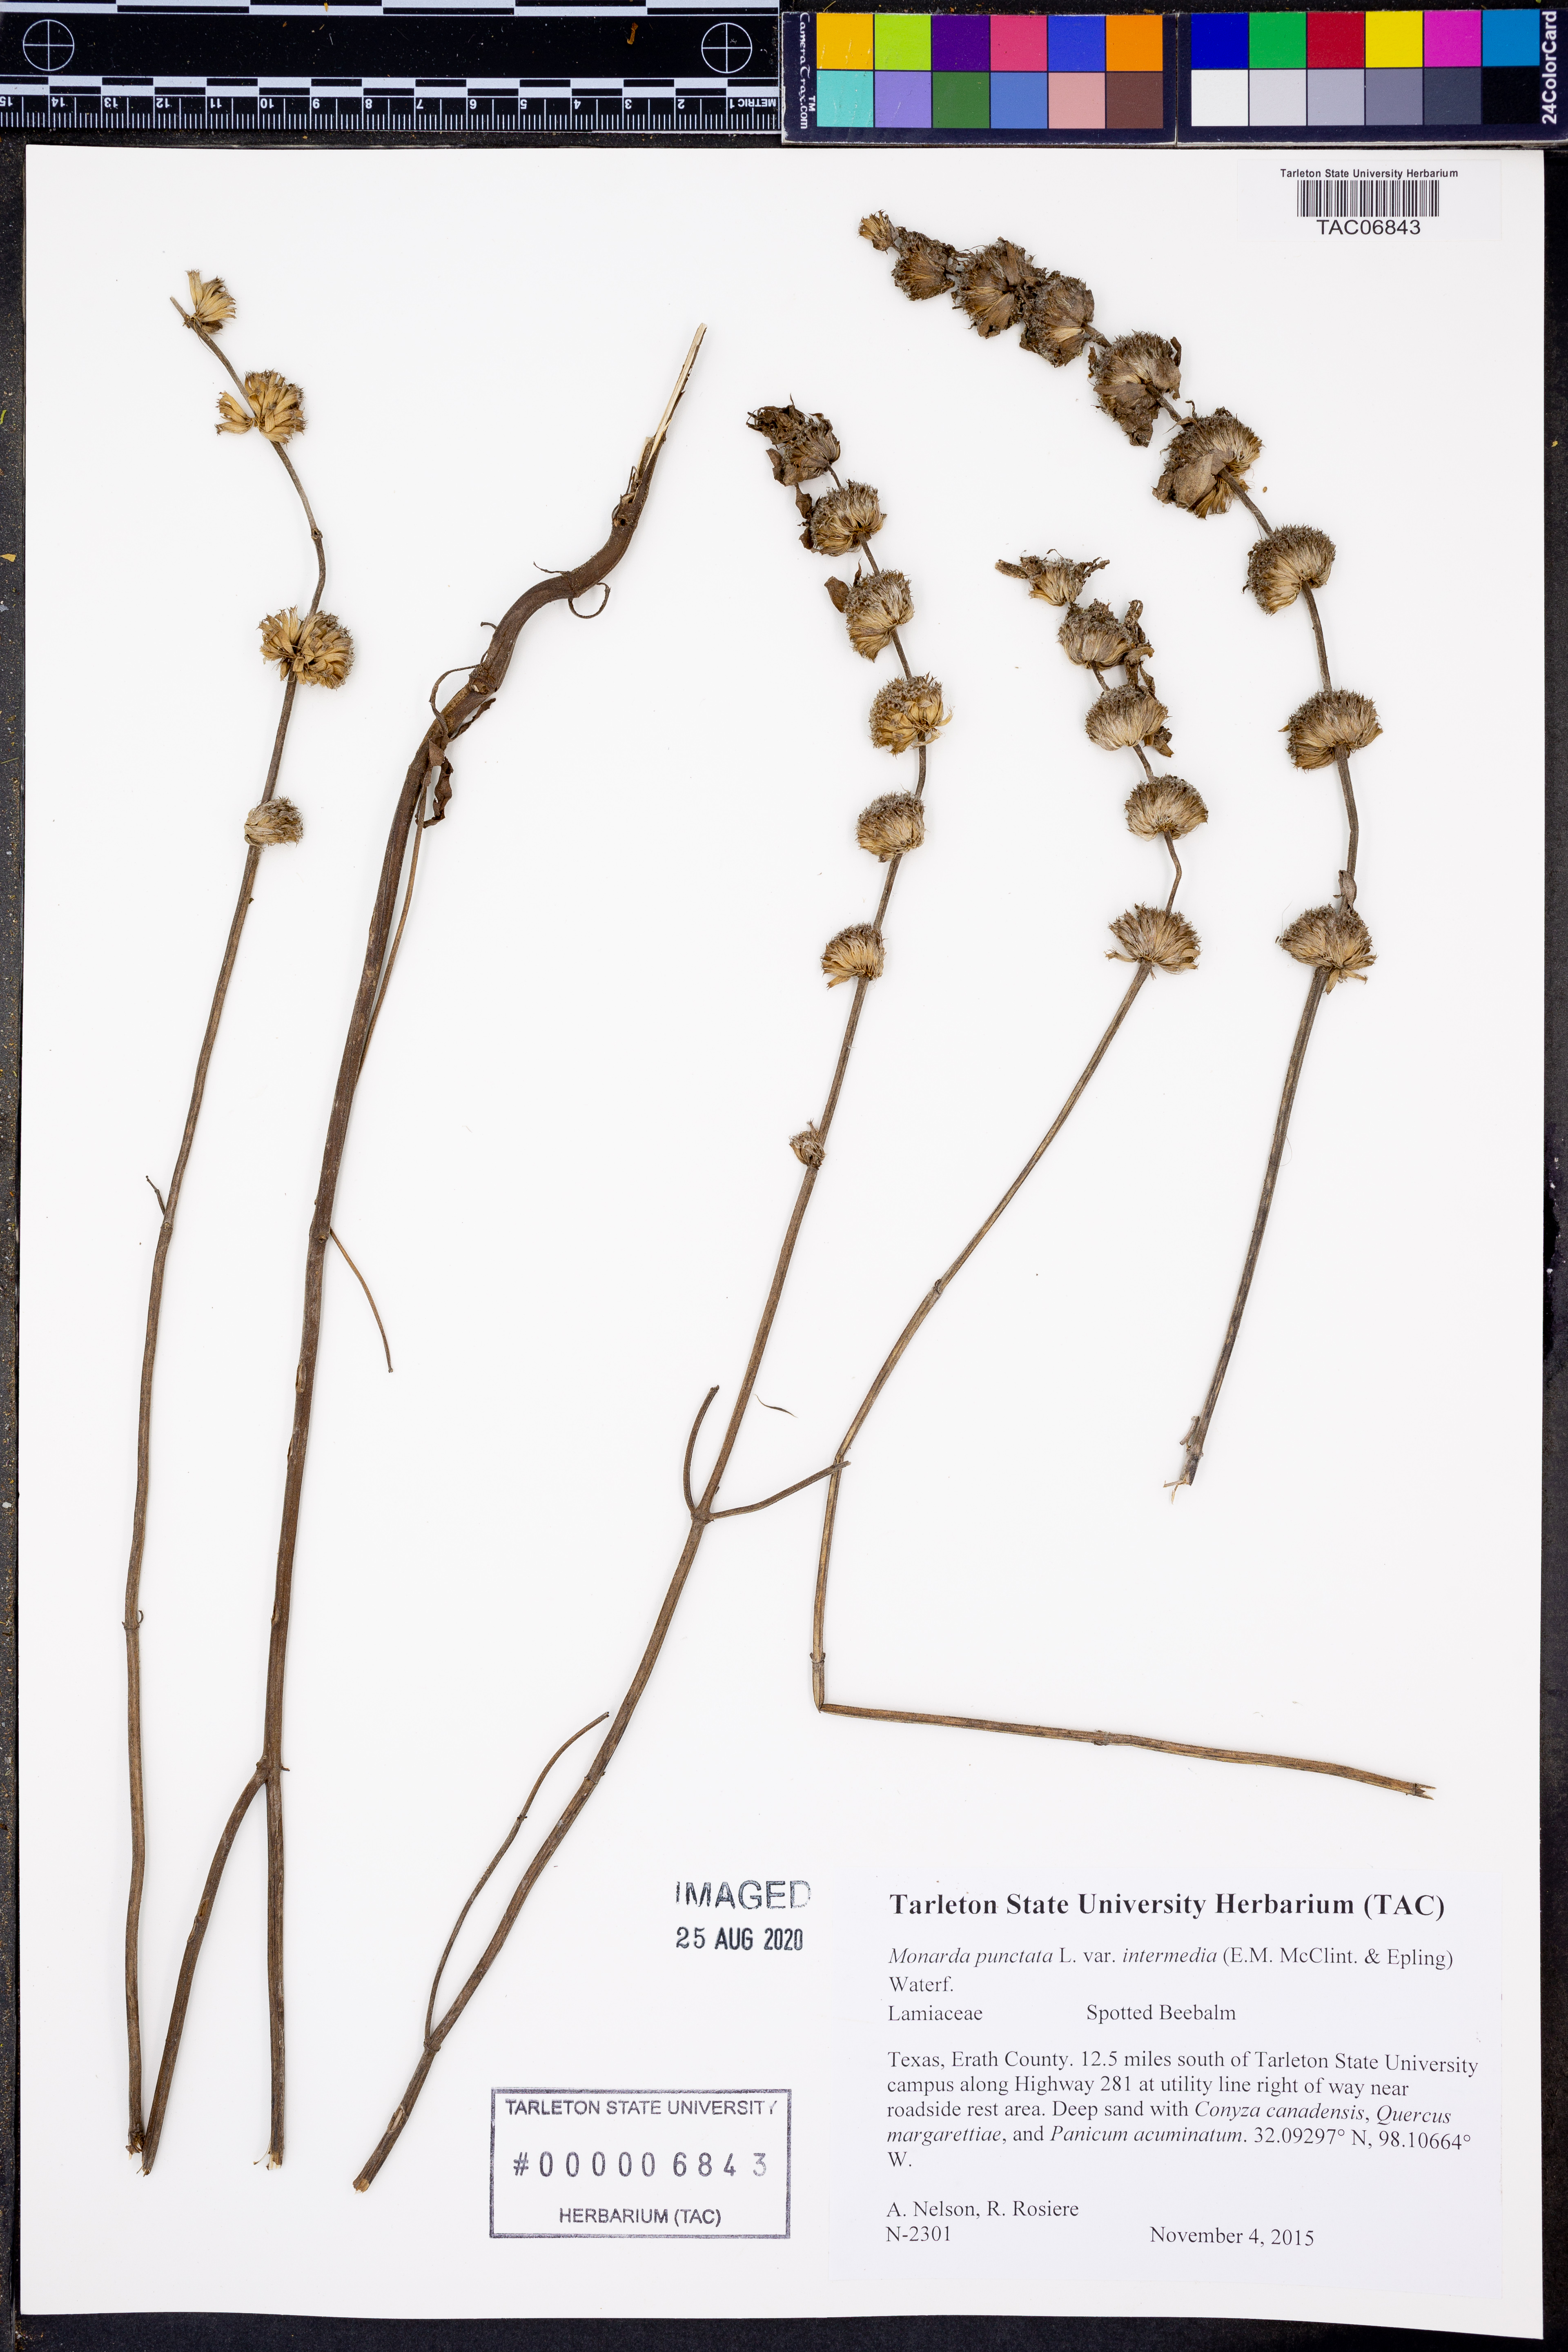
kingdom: Plantae
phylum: Tracheophyta
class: Magnoliopsida
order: Lamiales
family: Lamiaceae
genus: Monarda
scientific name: Monarda punctata
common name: Dotted monarda
